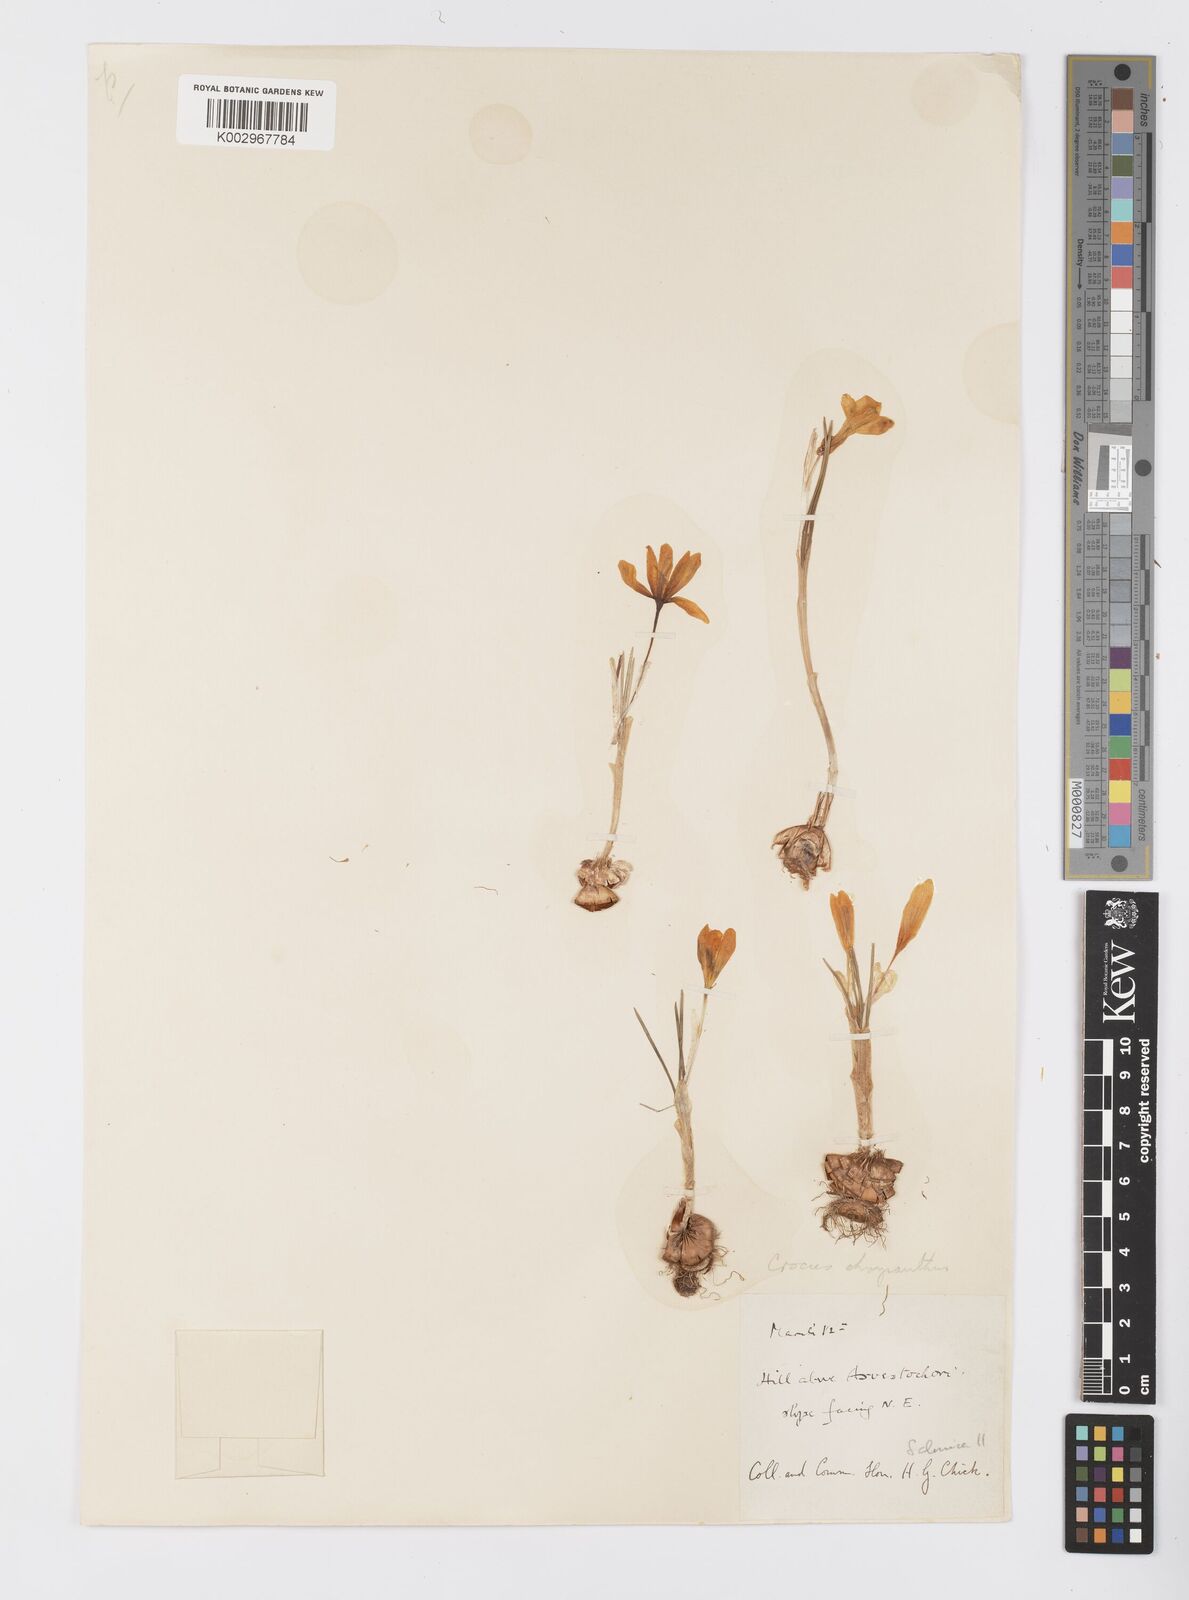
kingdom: Plantae
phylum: Tracheophyta
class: Liliopsida
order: Asparagales
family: Iridaceae
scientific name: Iridaceae
